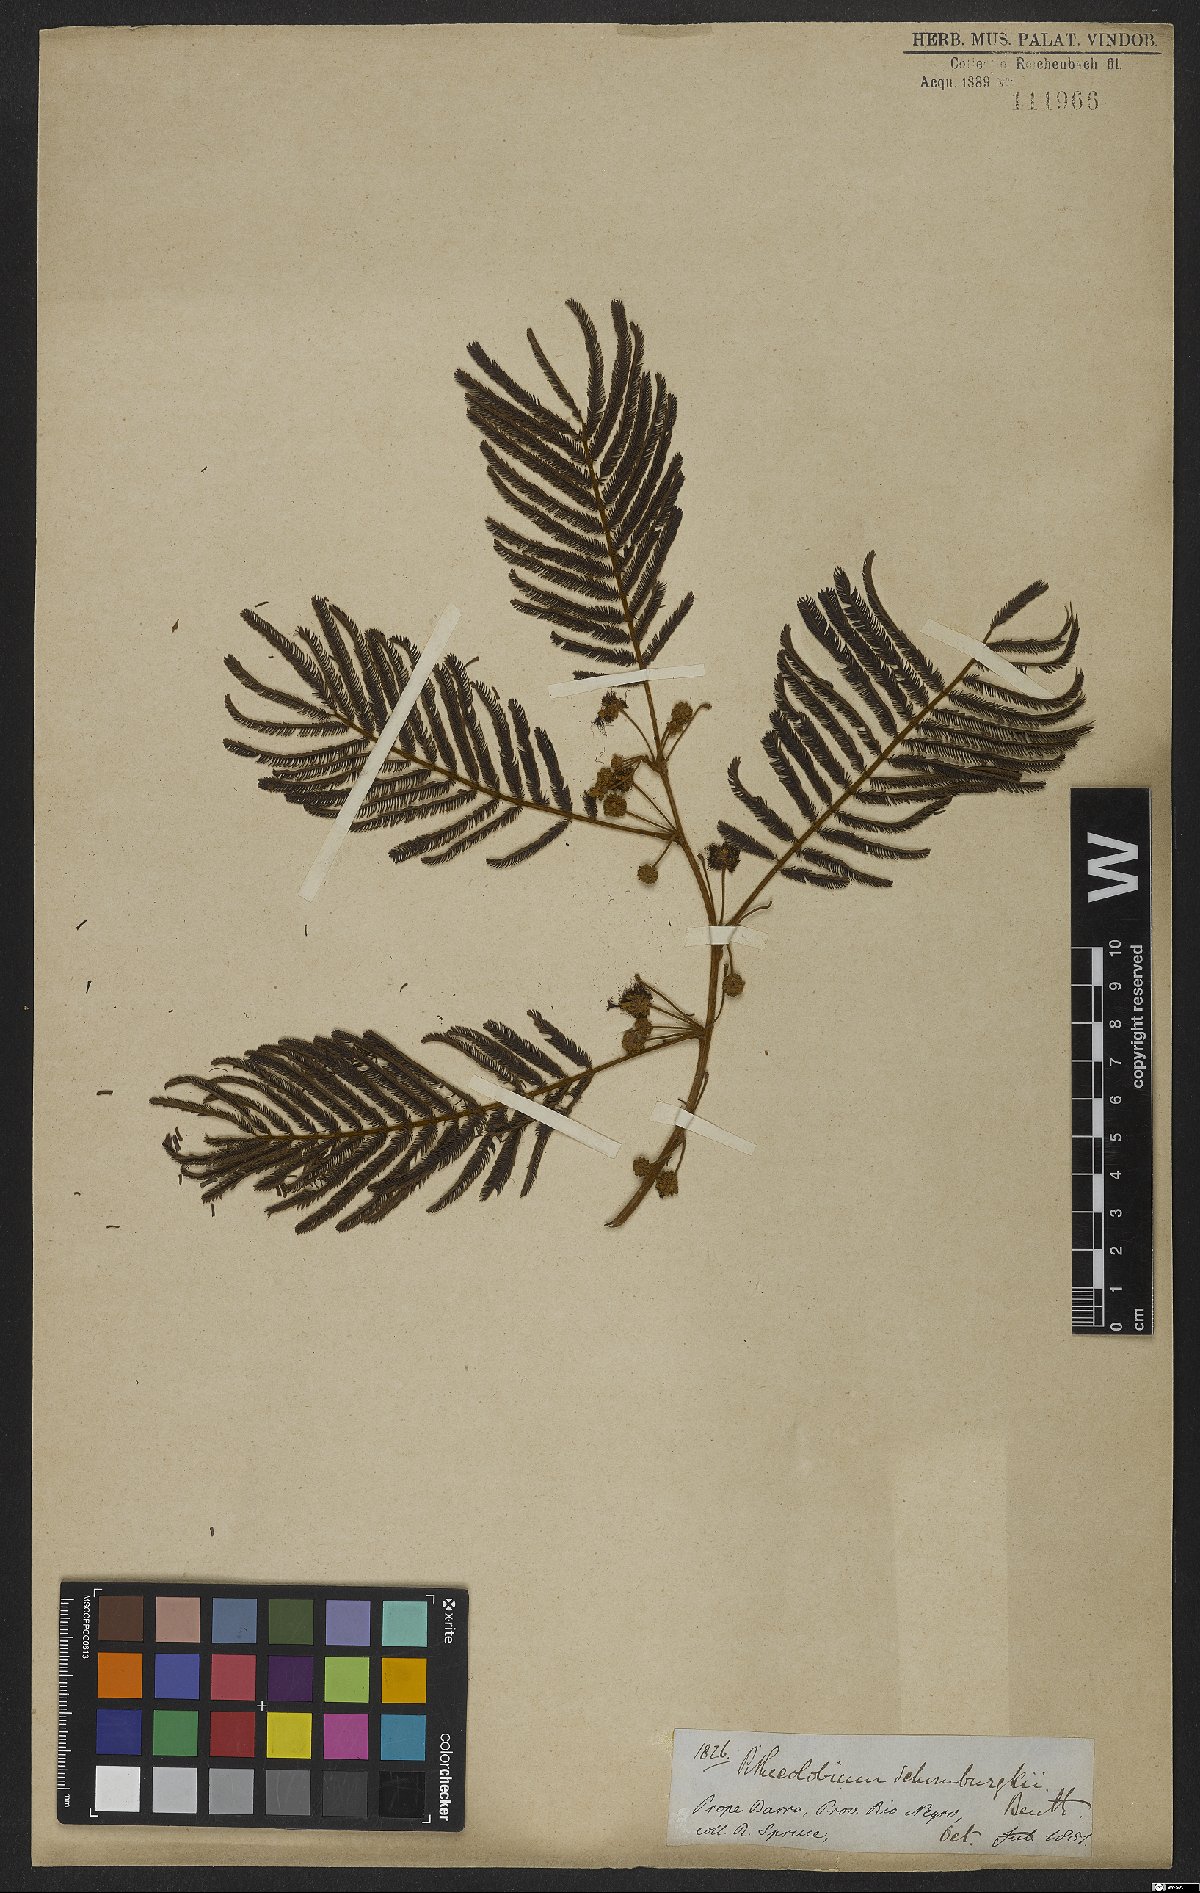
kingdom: Plantae
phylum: Tracheophyta
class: Magnoliopsida
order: Fabales
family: Fabaceae
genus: Enterolobium
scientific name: Enterolobium schomburgkii
